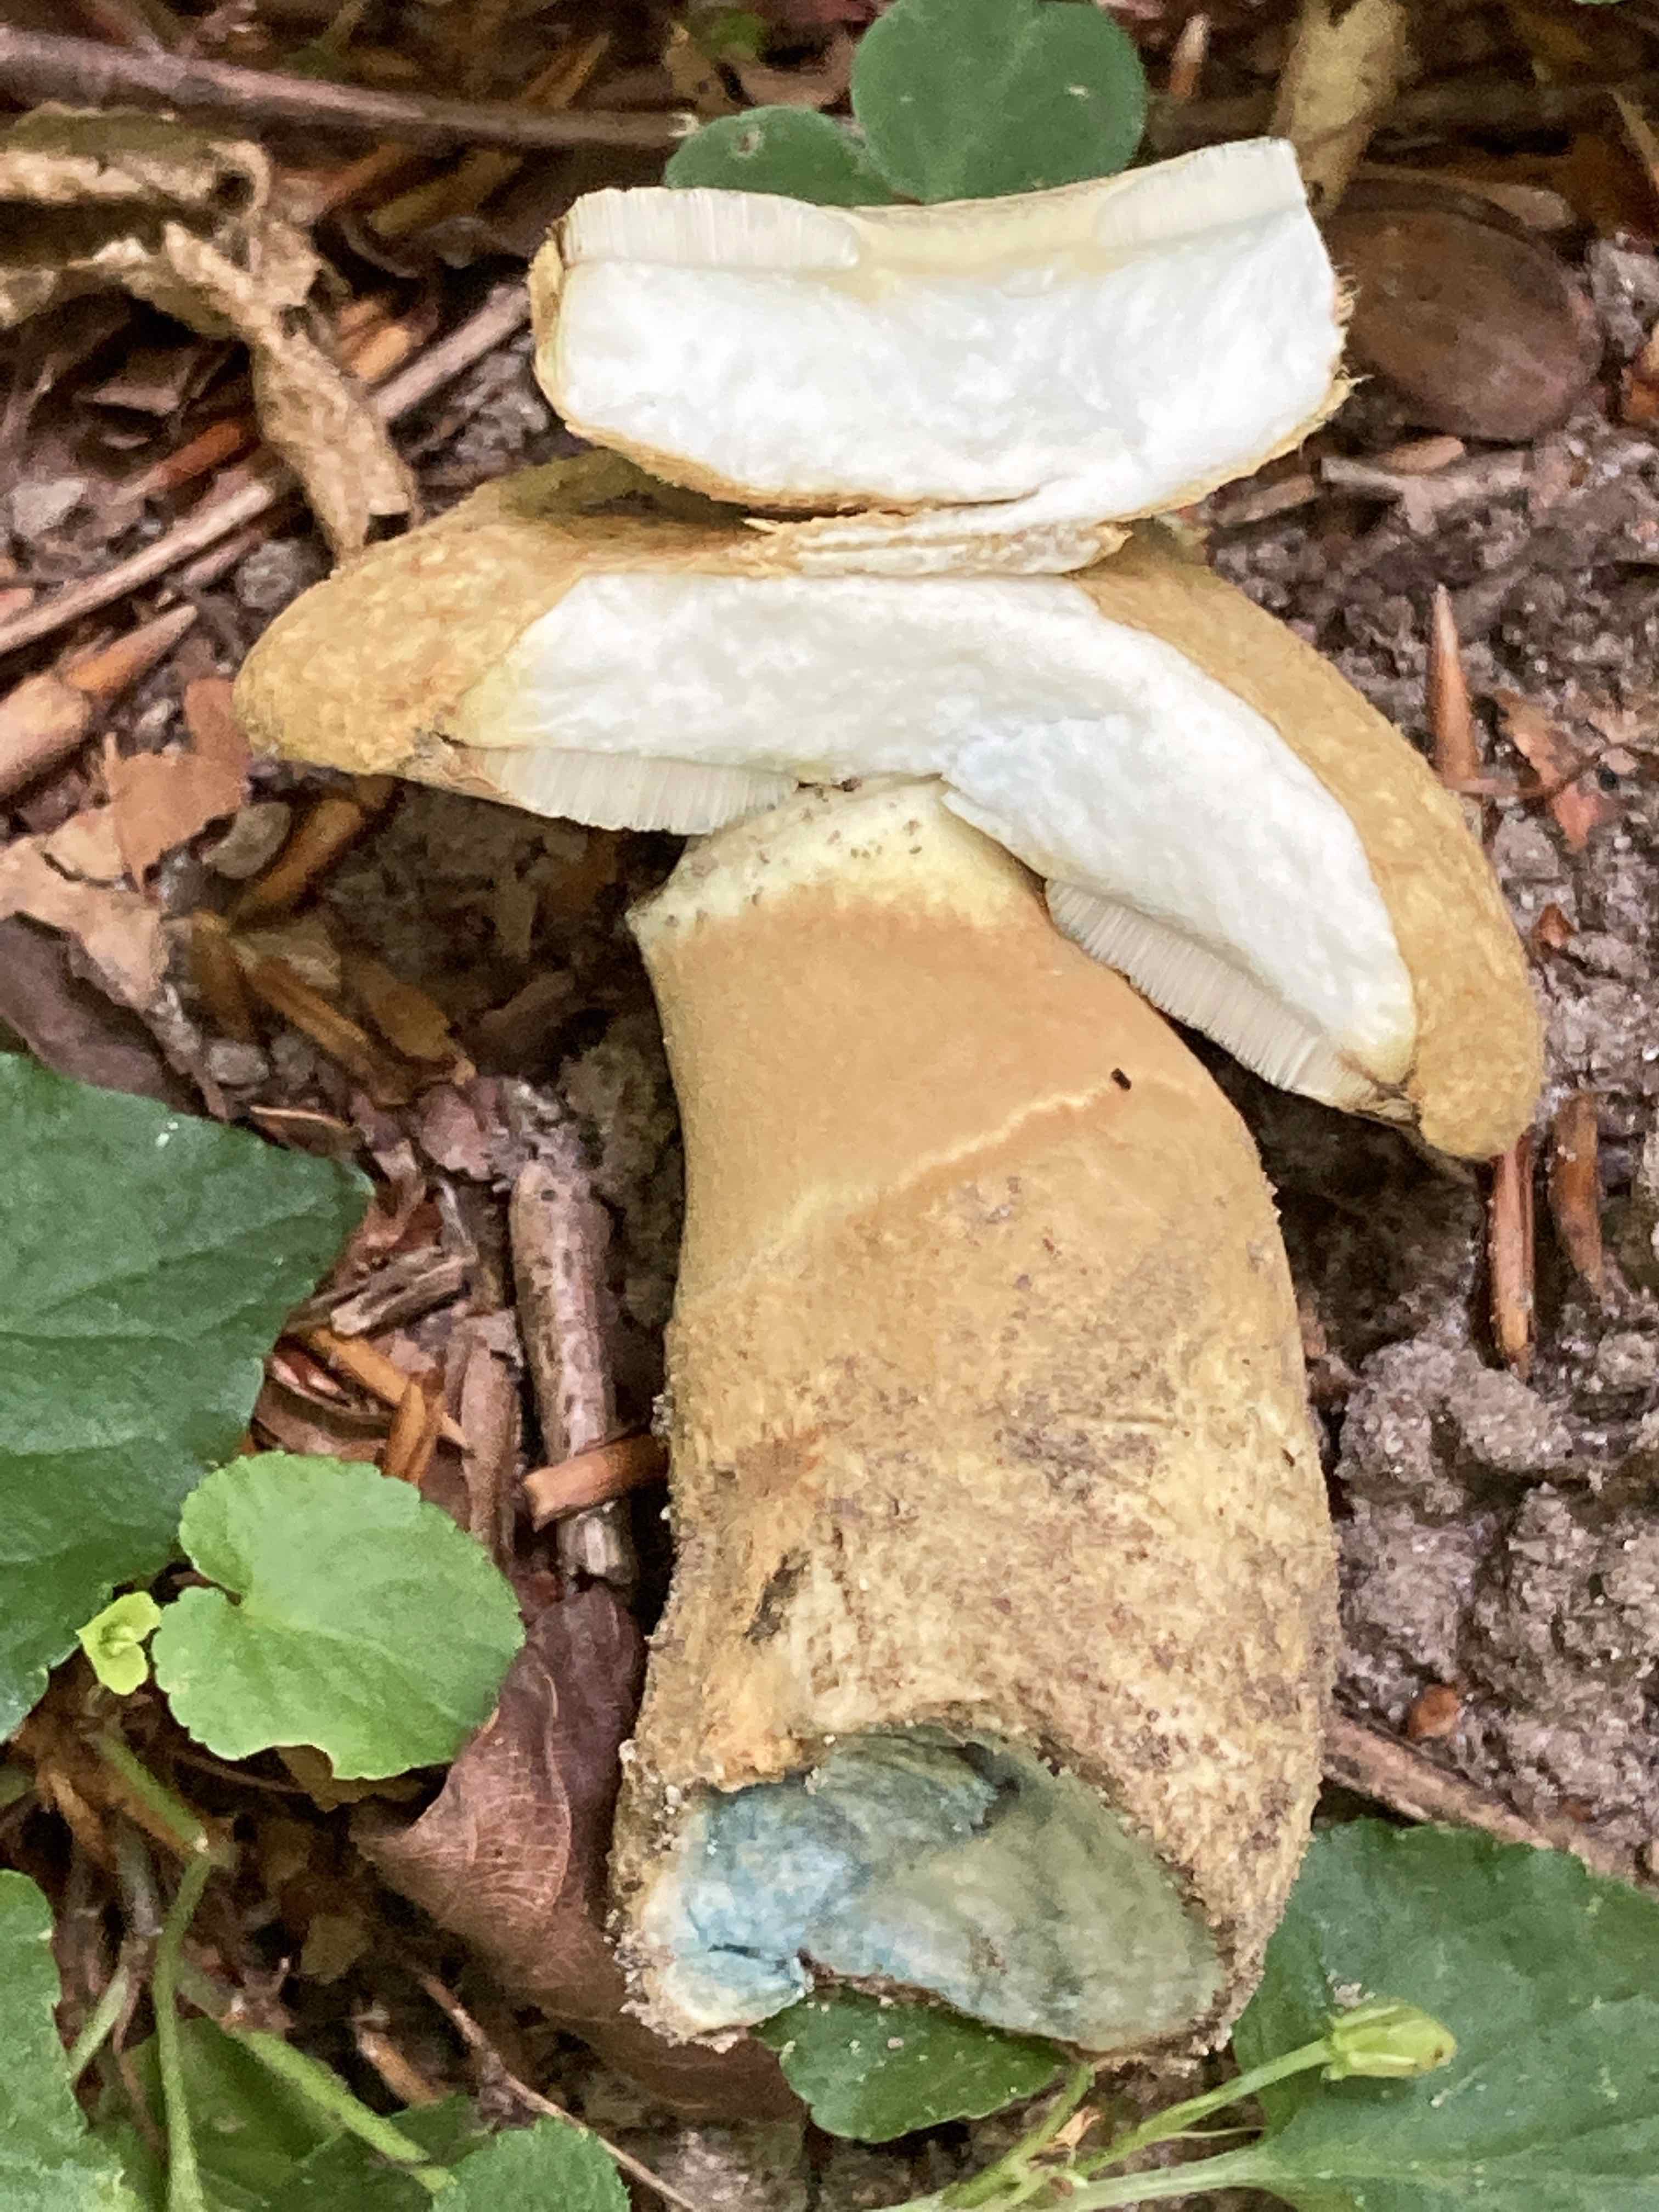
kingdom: Fungi
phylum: Basidiomycota
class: Agaricomycetes
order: Boletales
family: Gyroporaceae
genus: Gyroporus
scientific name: Gyroporus cyanescens
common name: blånende kammerrørhat
